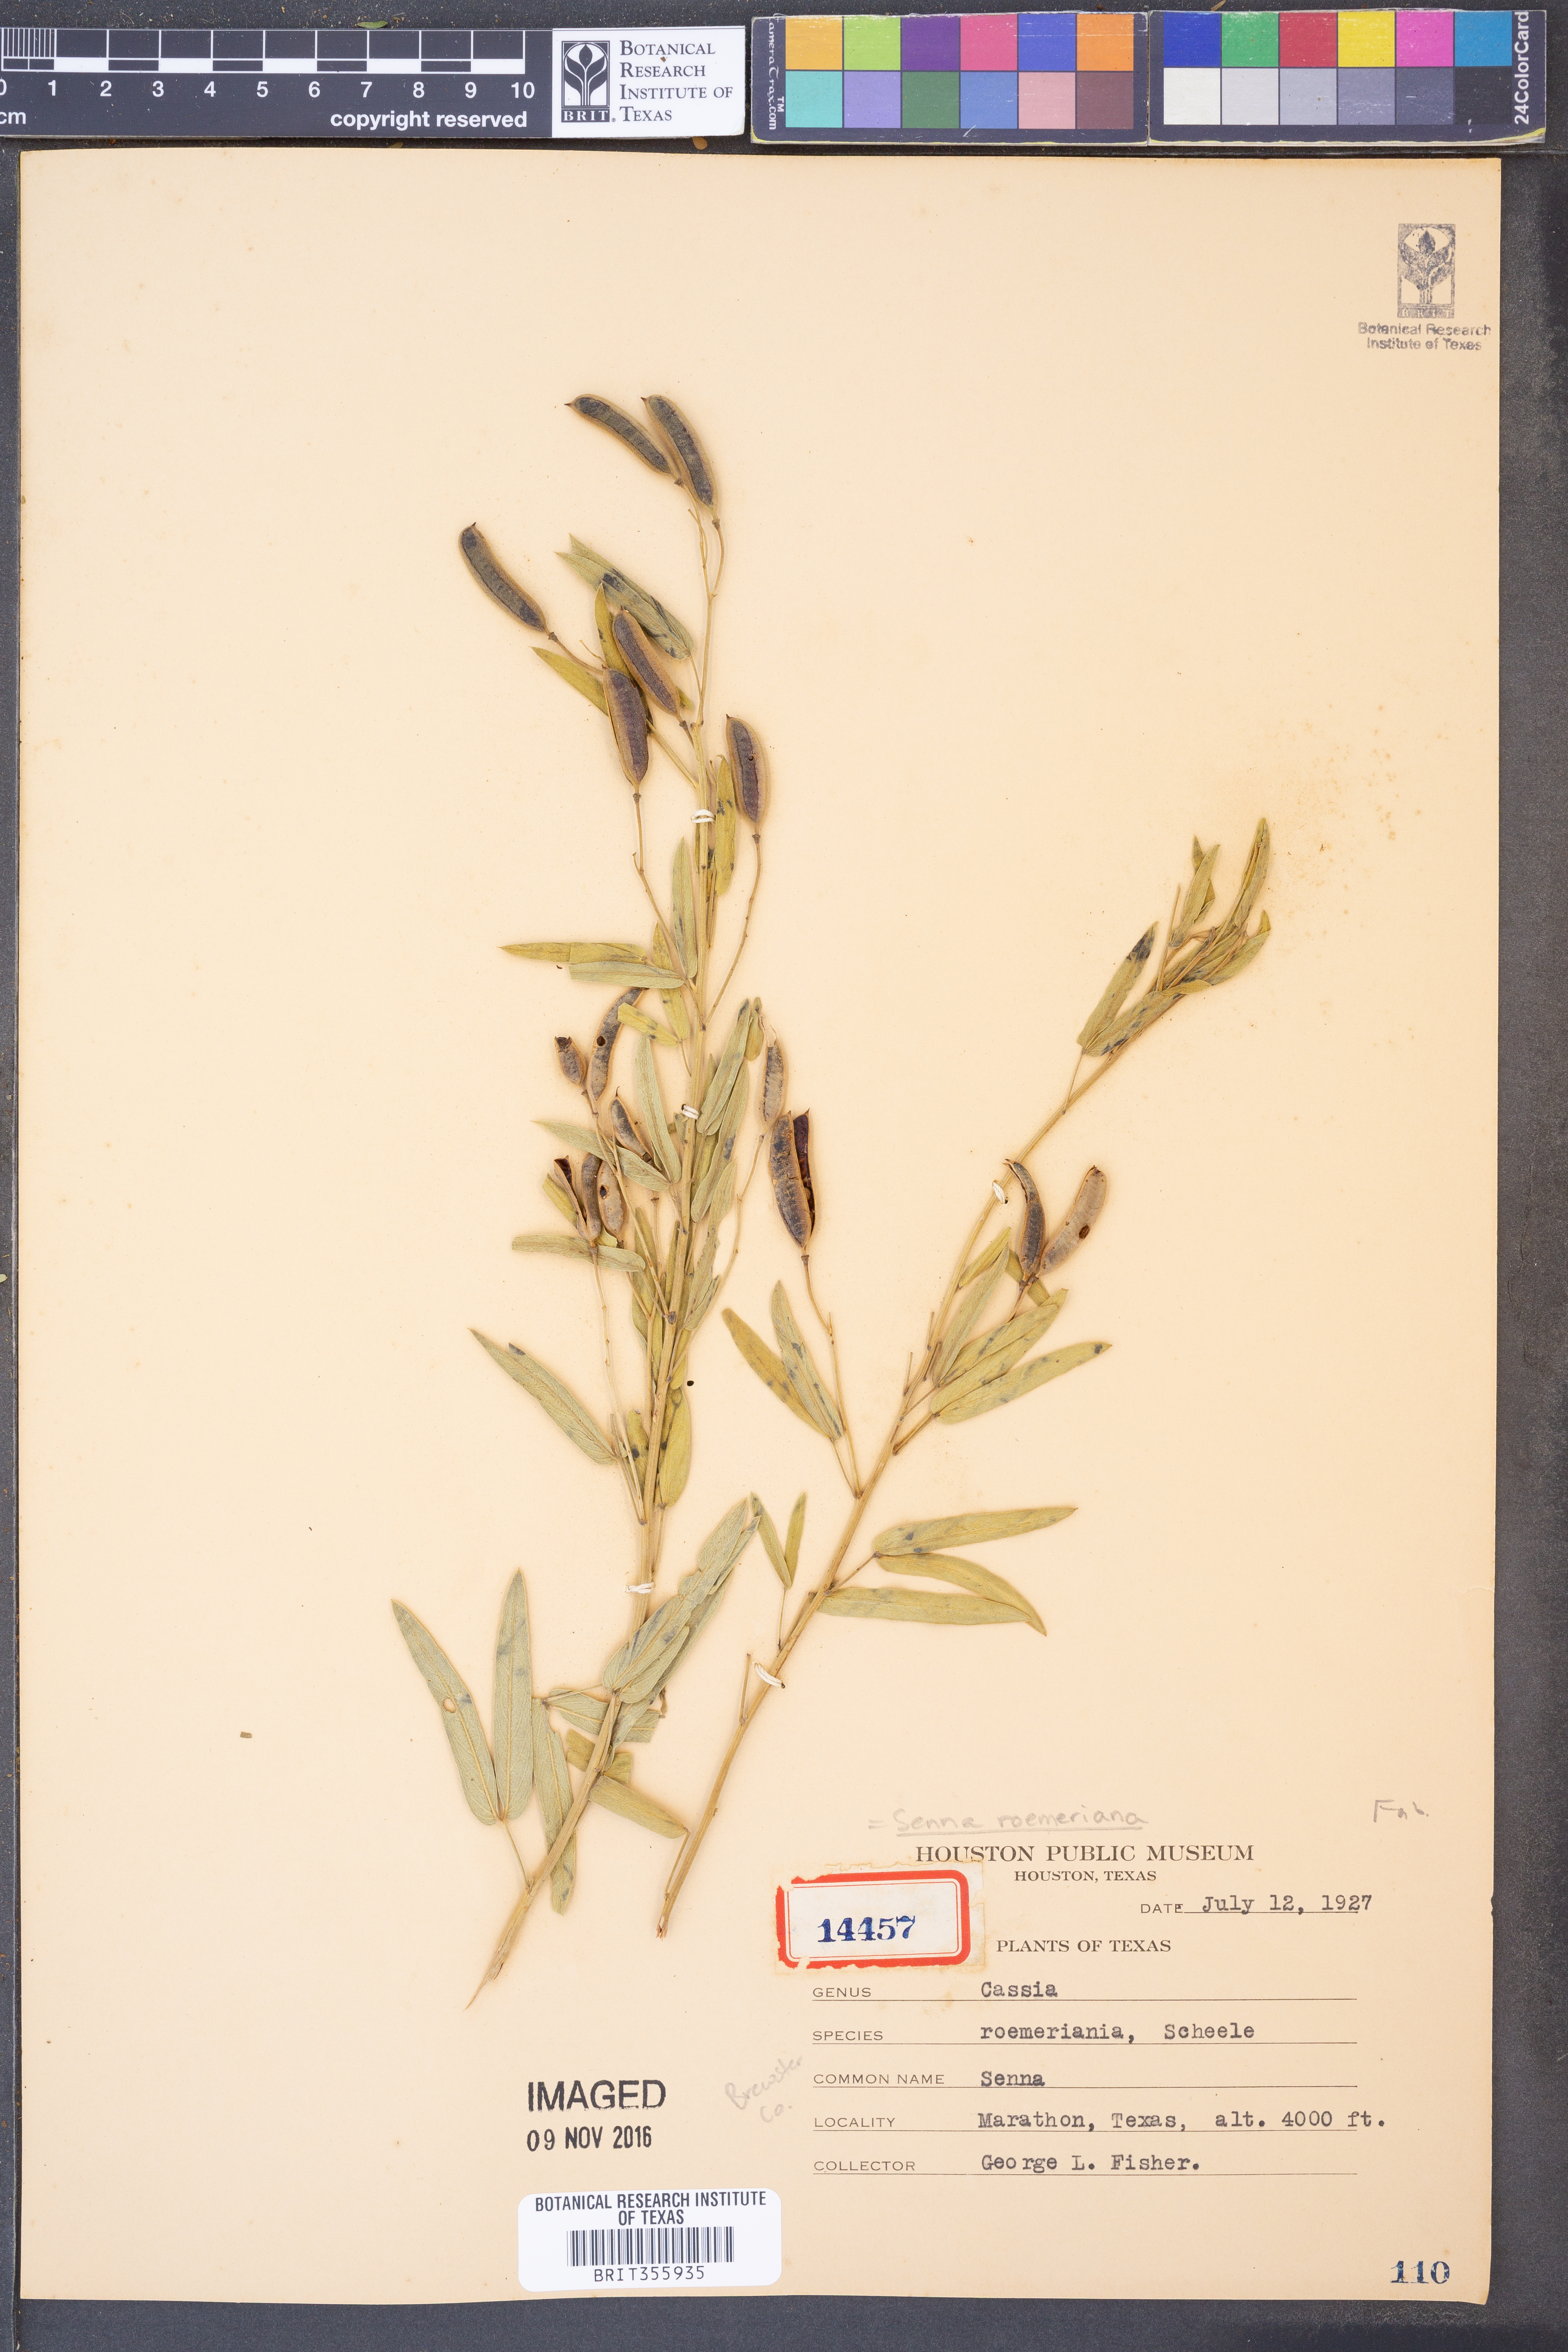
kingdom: Plantae
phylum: Tracheophyta
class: Magnoliopsida
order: Fabales
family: Fabaceae
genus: Senna
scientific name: Senna roemeriana
